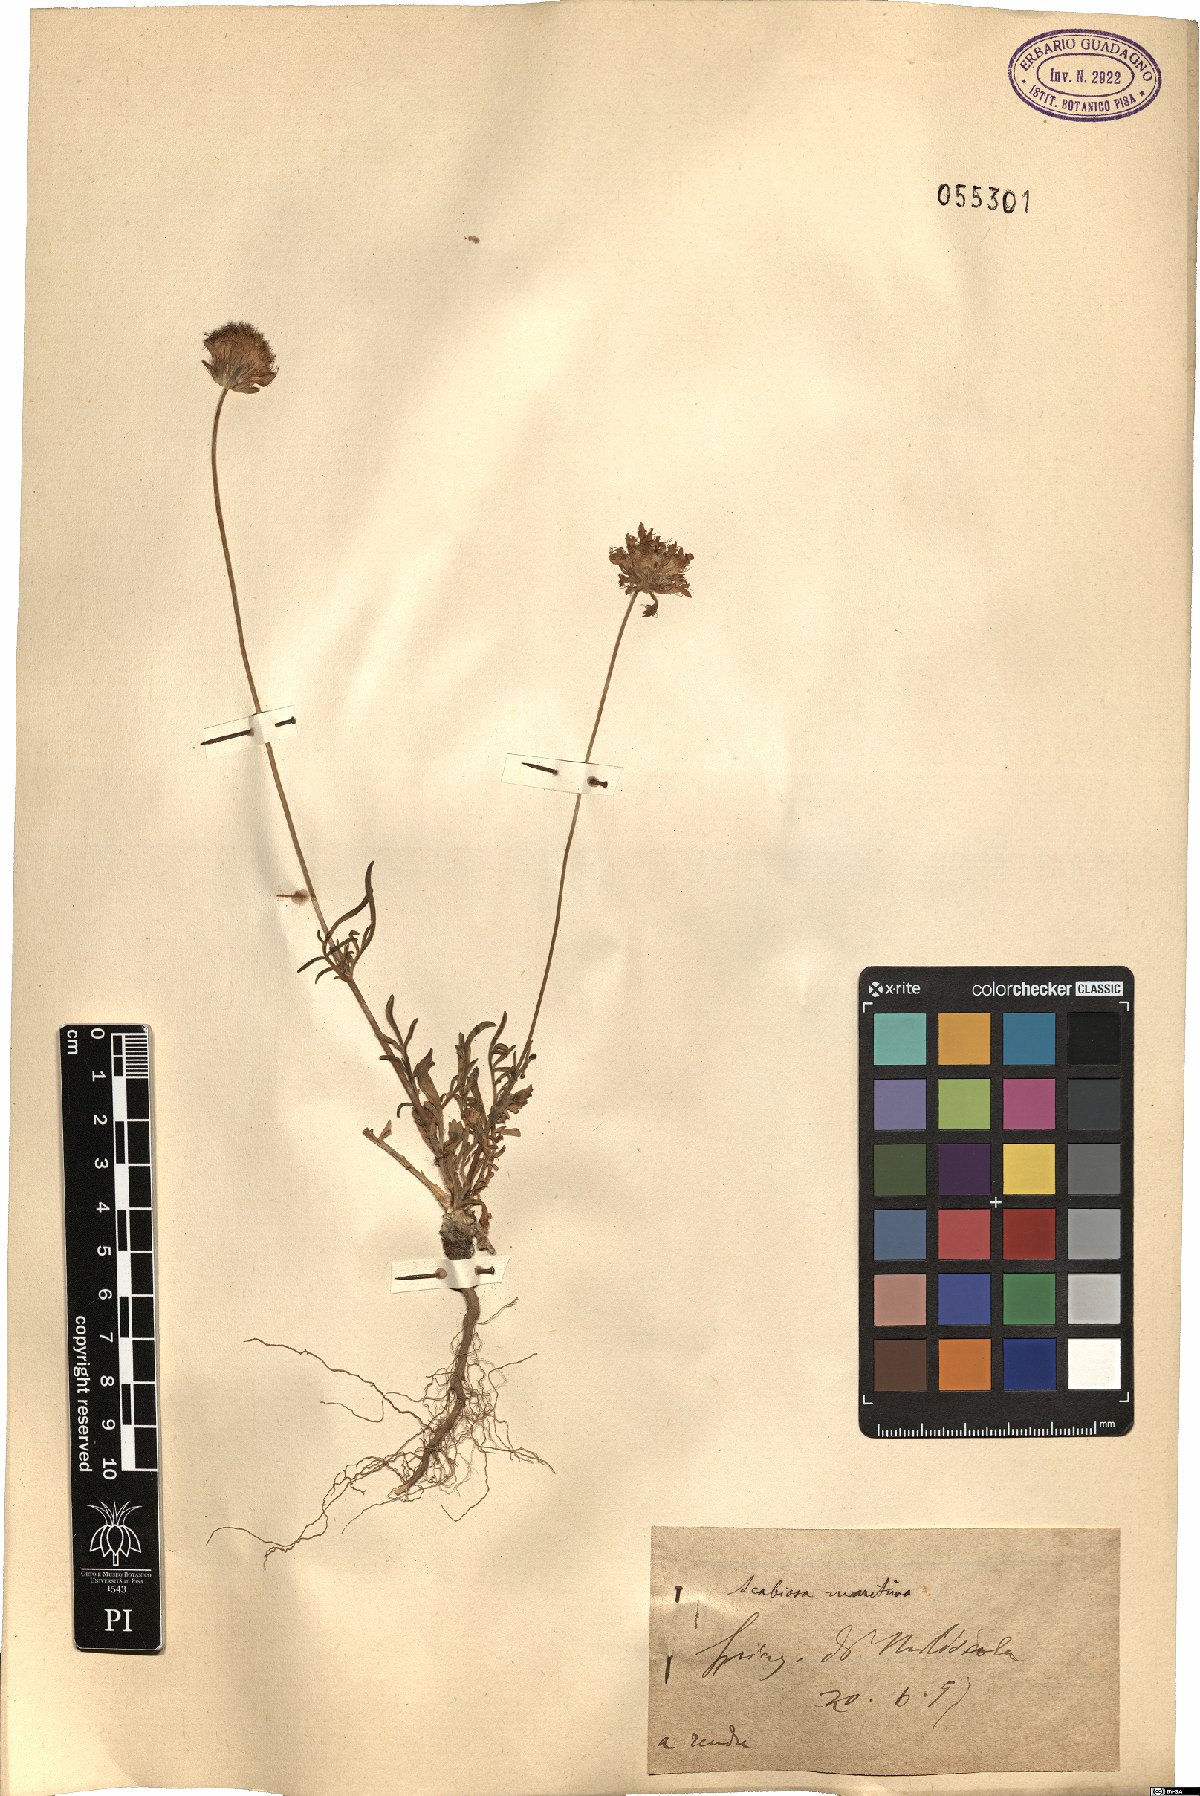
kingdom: Plantae
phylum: Tracheophyta
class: Magnoliopsida
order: Dipsacales
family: Caprifoliaceae
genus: Sixalix
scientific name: Sixalix maritima
